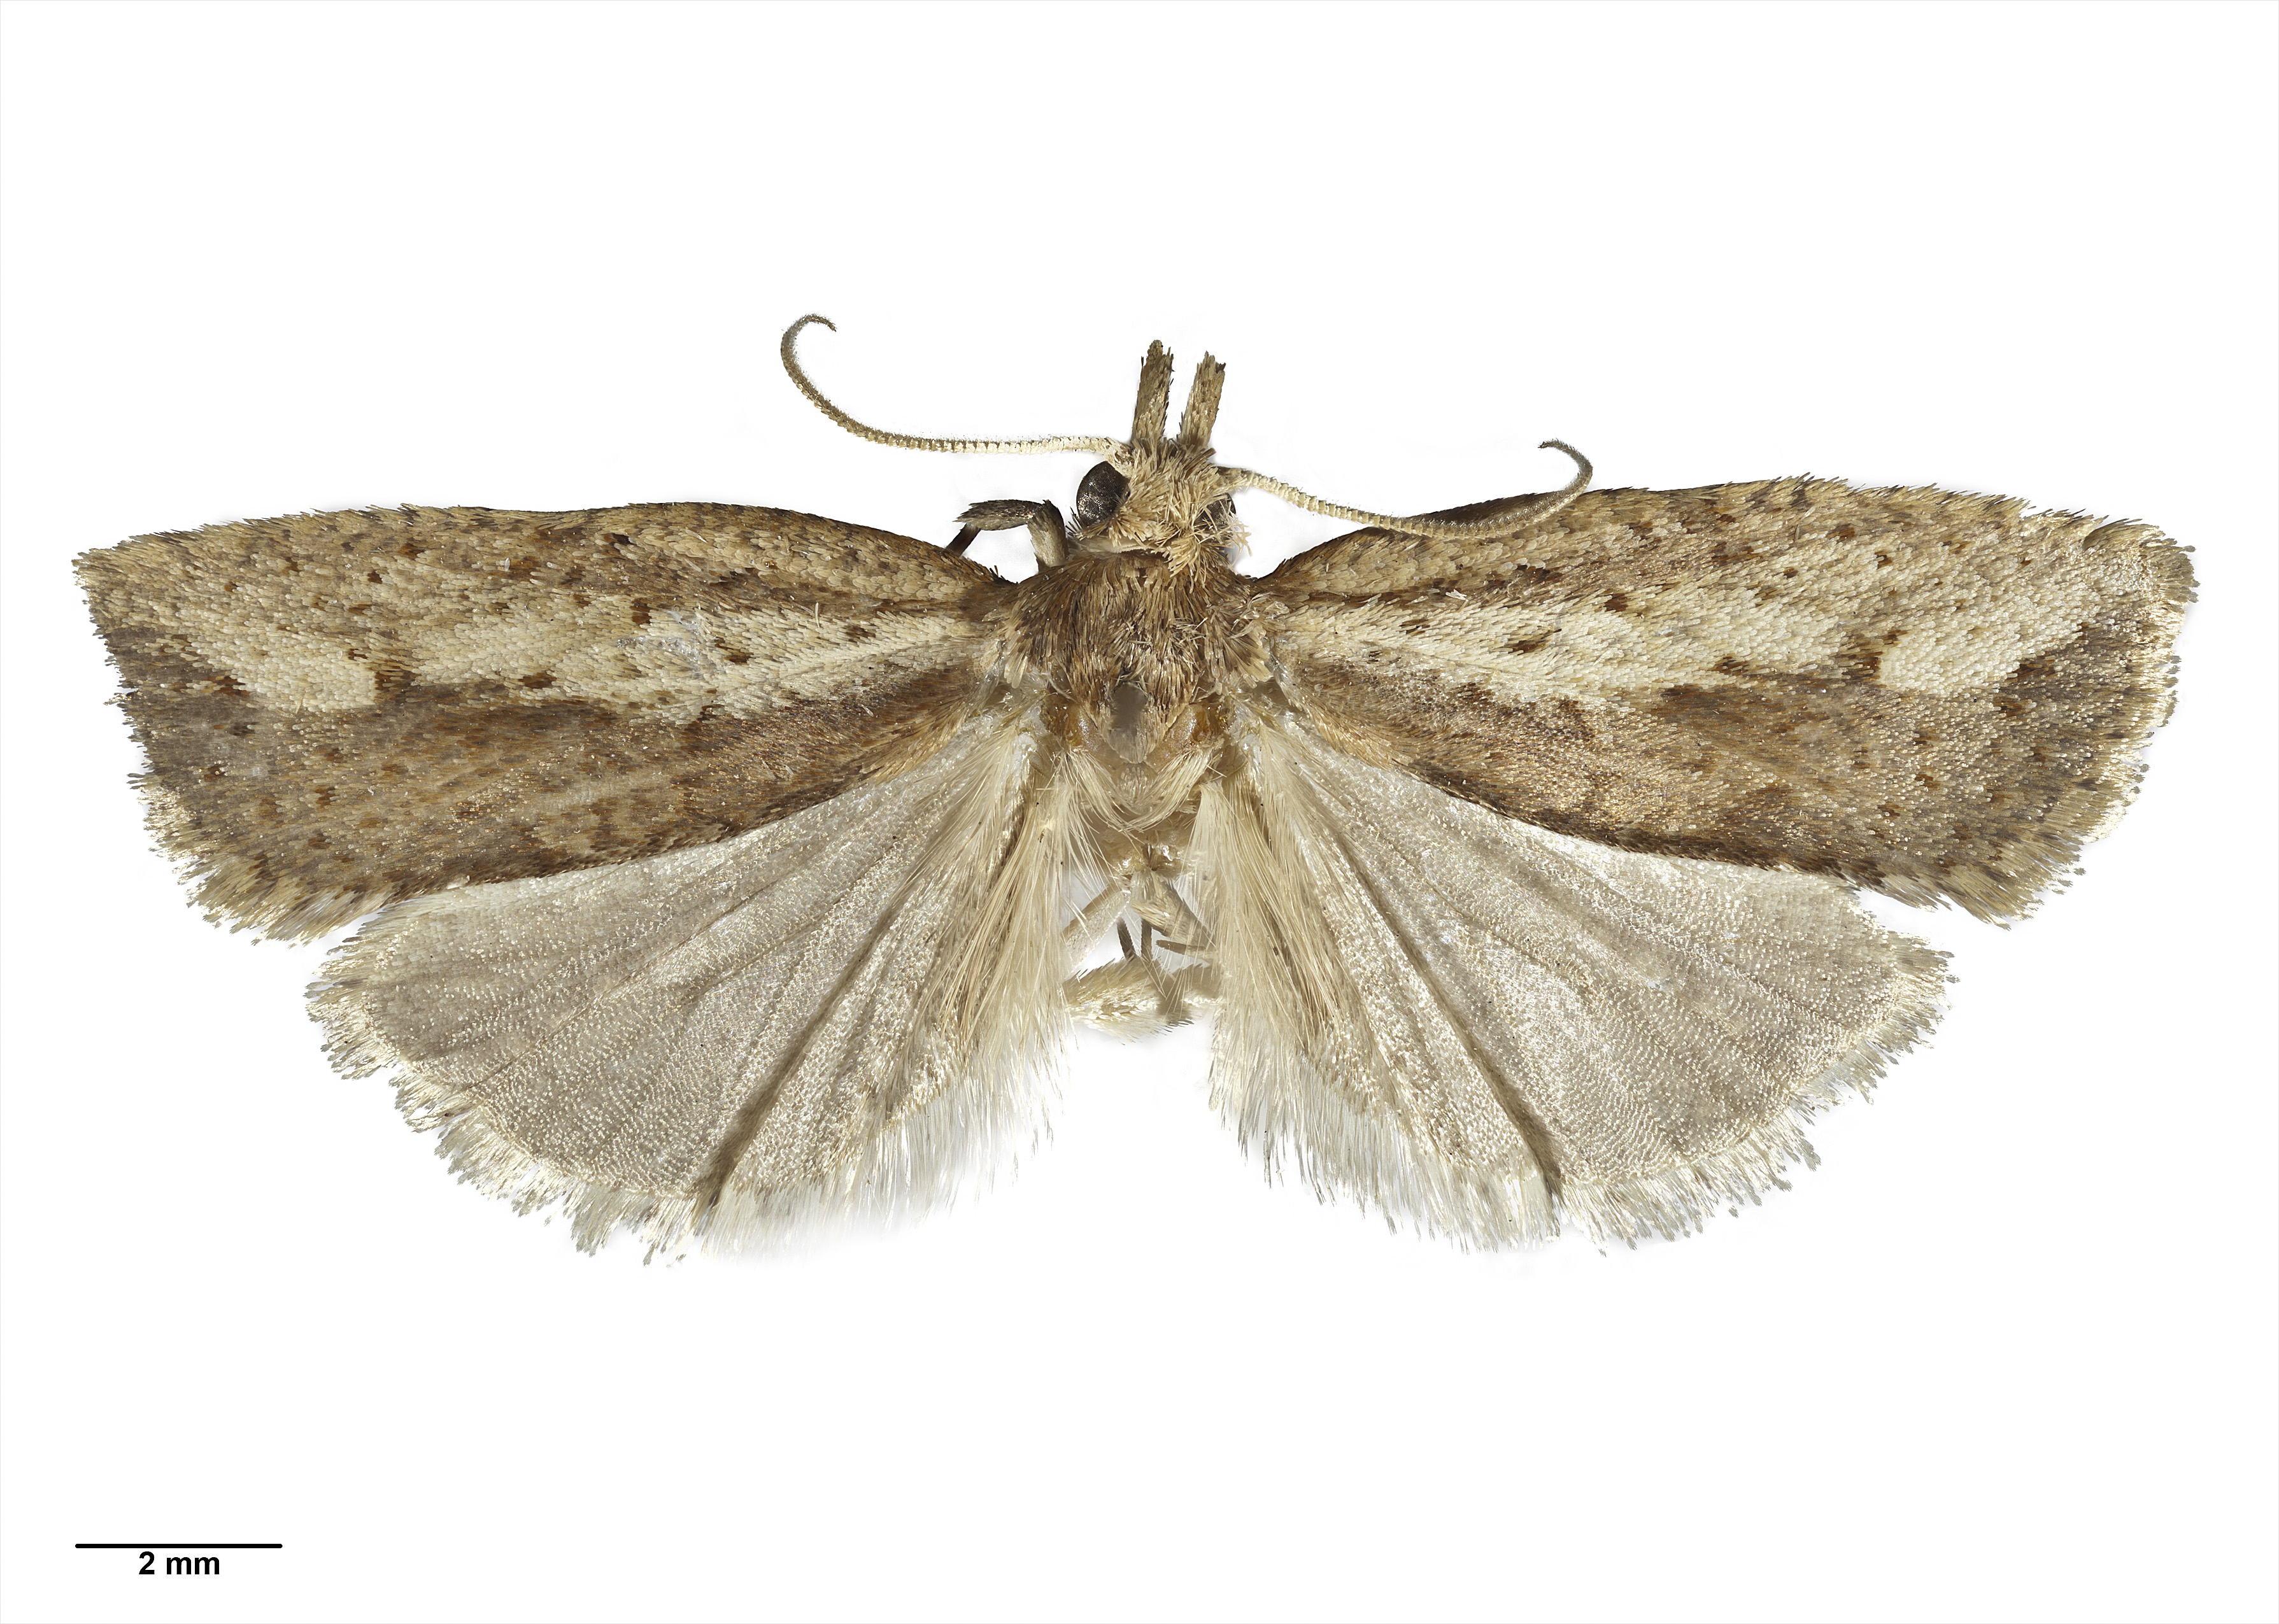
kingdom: Animalia
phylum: Arthropoda
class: Insecta
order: Lepidoptera
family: Tortricidae
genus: Planotortrix
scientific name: Planotortrix notophaea
